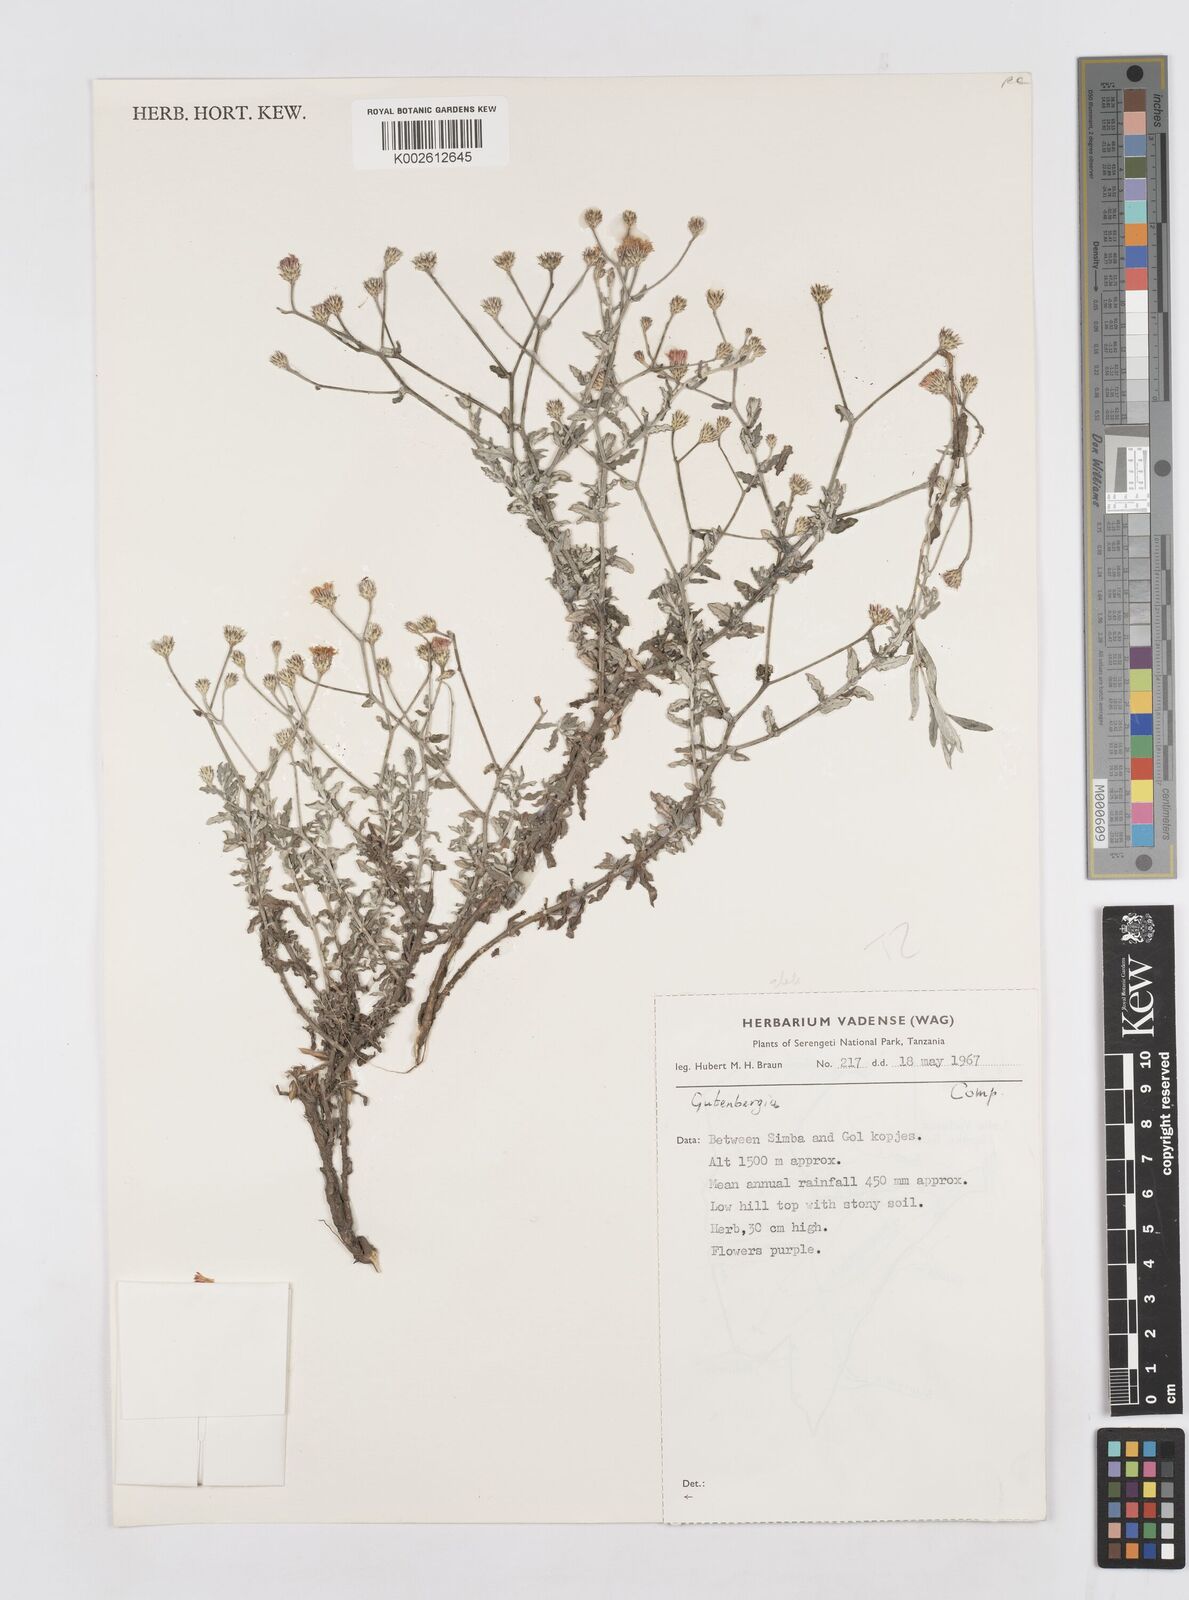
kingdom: Plantae
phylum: Tracheophyta
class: Magnoliopsida
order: Asterales
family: Asteraceae
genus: Gutenbergia
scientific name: Gutenbergia rueppellii
